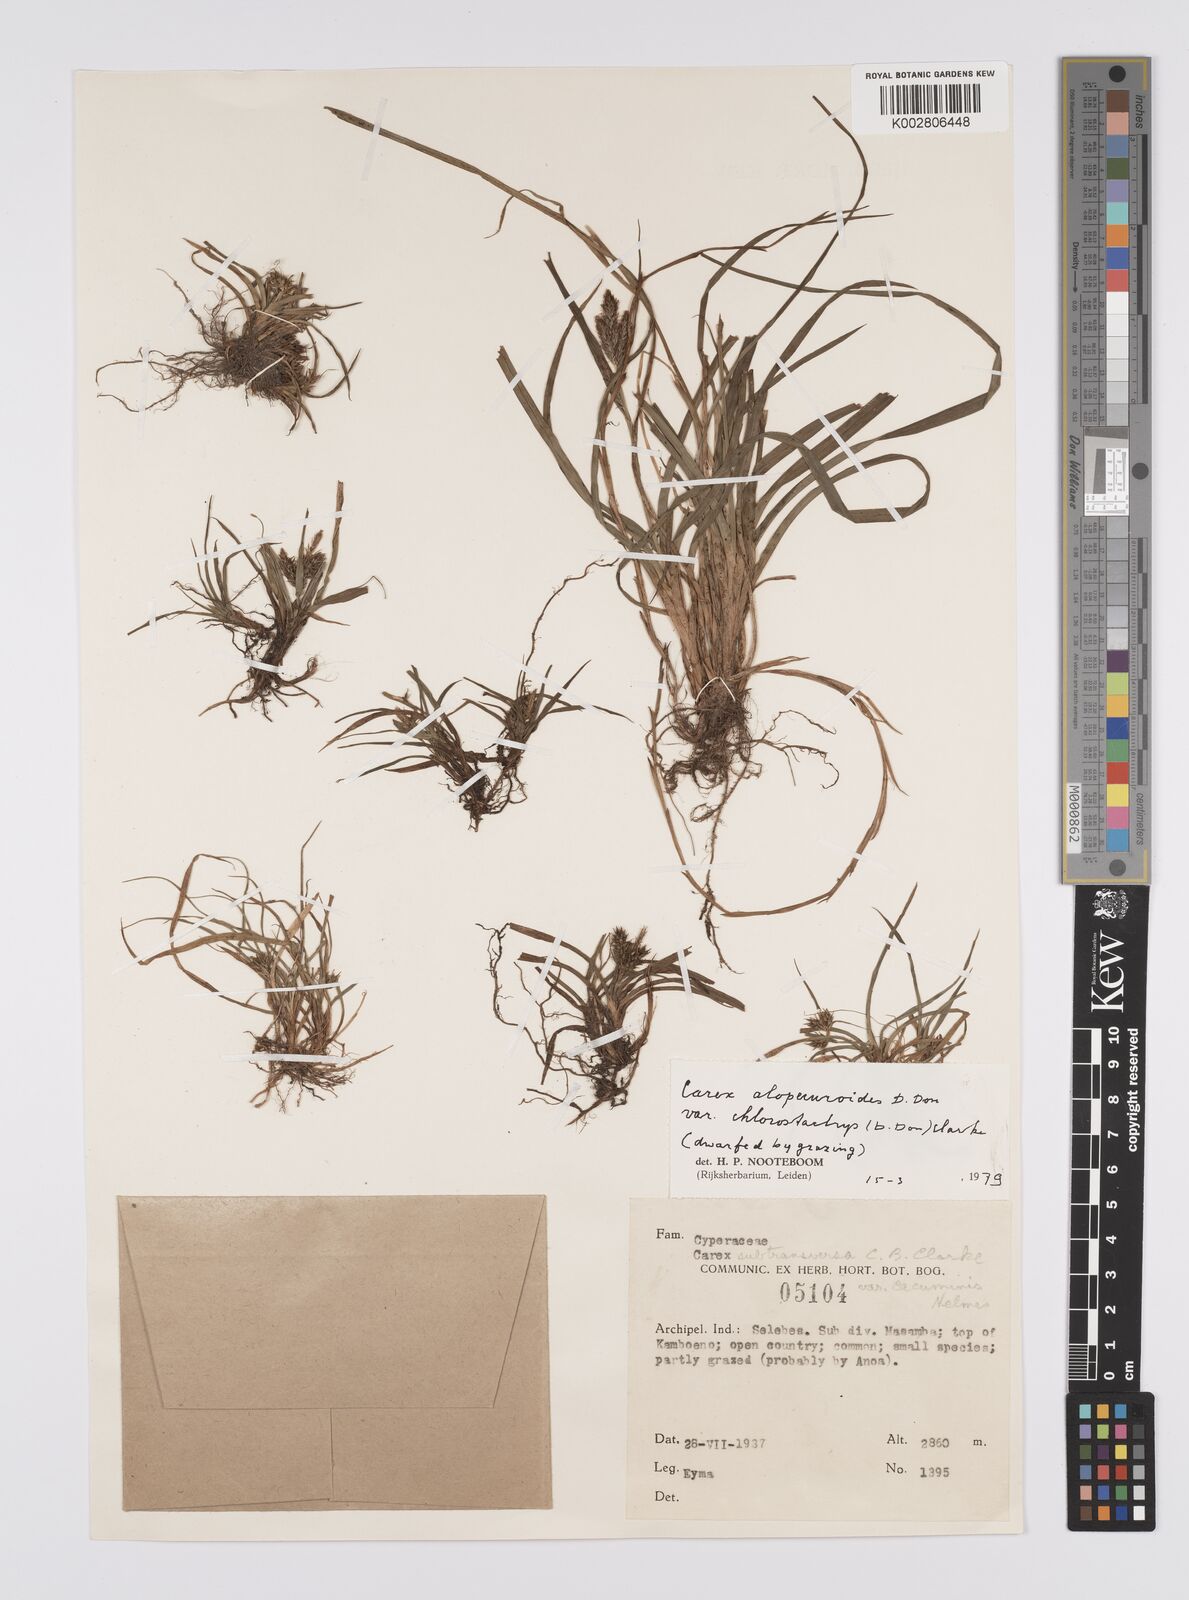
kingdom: Plantae
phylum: Tracheophyta
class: Liliopsida
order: Poales
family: Cyperaceae
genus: Carex
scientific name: Carex alopecuroides
